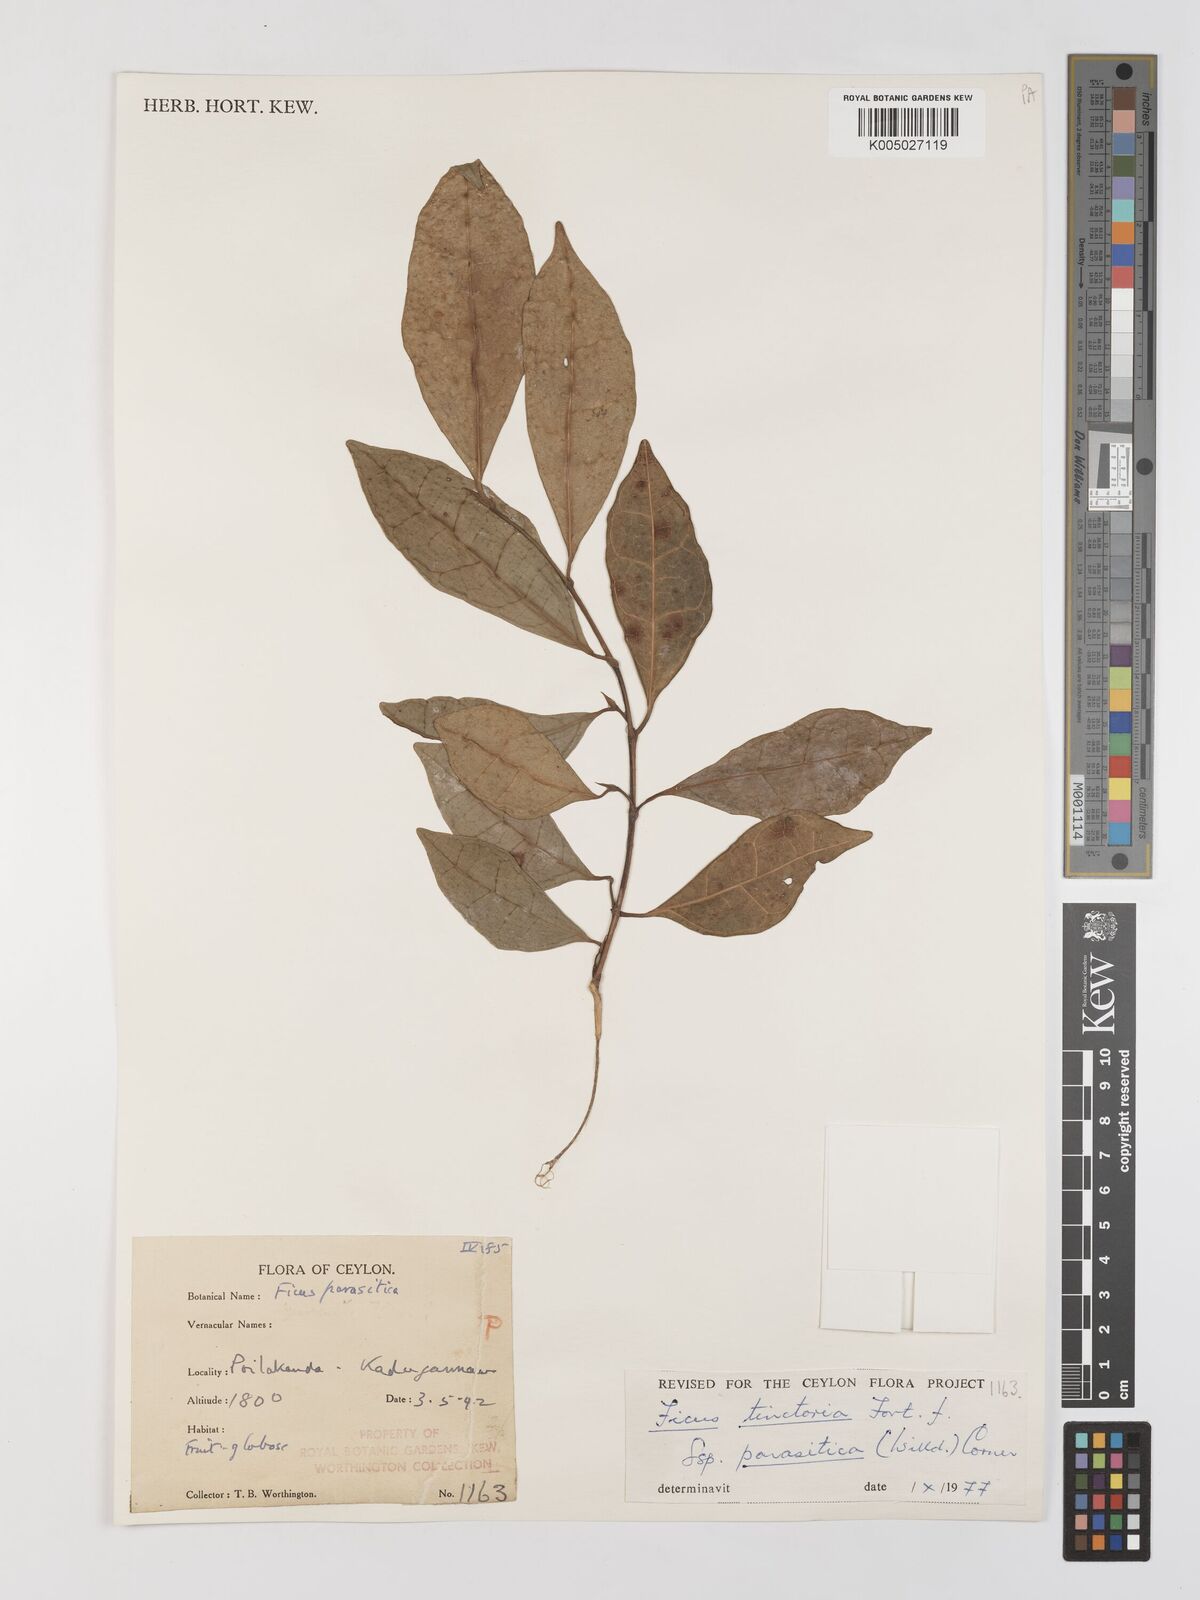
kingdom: Plantae
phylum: Tracheophyta
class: Magnoliopsida
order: Rosales
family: Moraceae
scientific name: Moraceae
